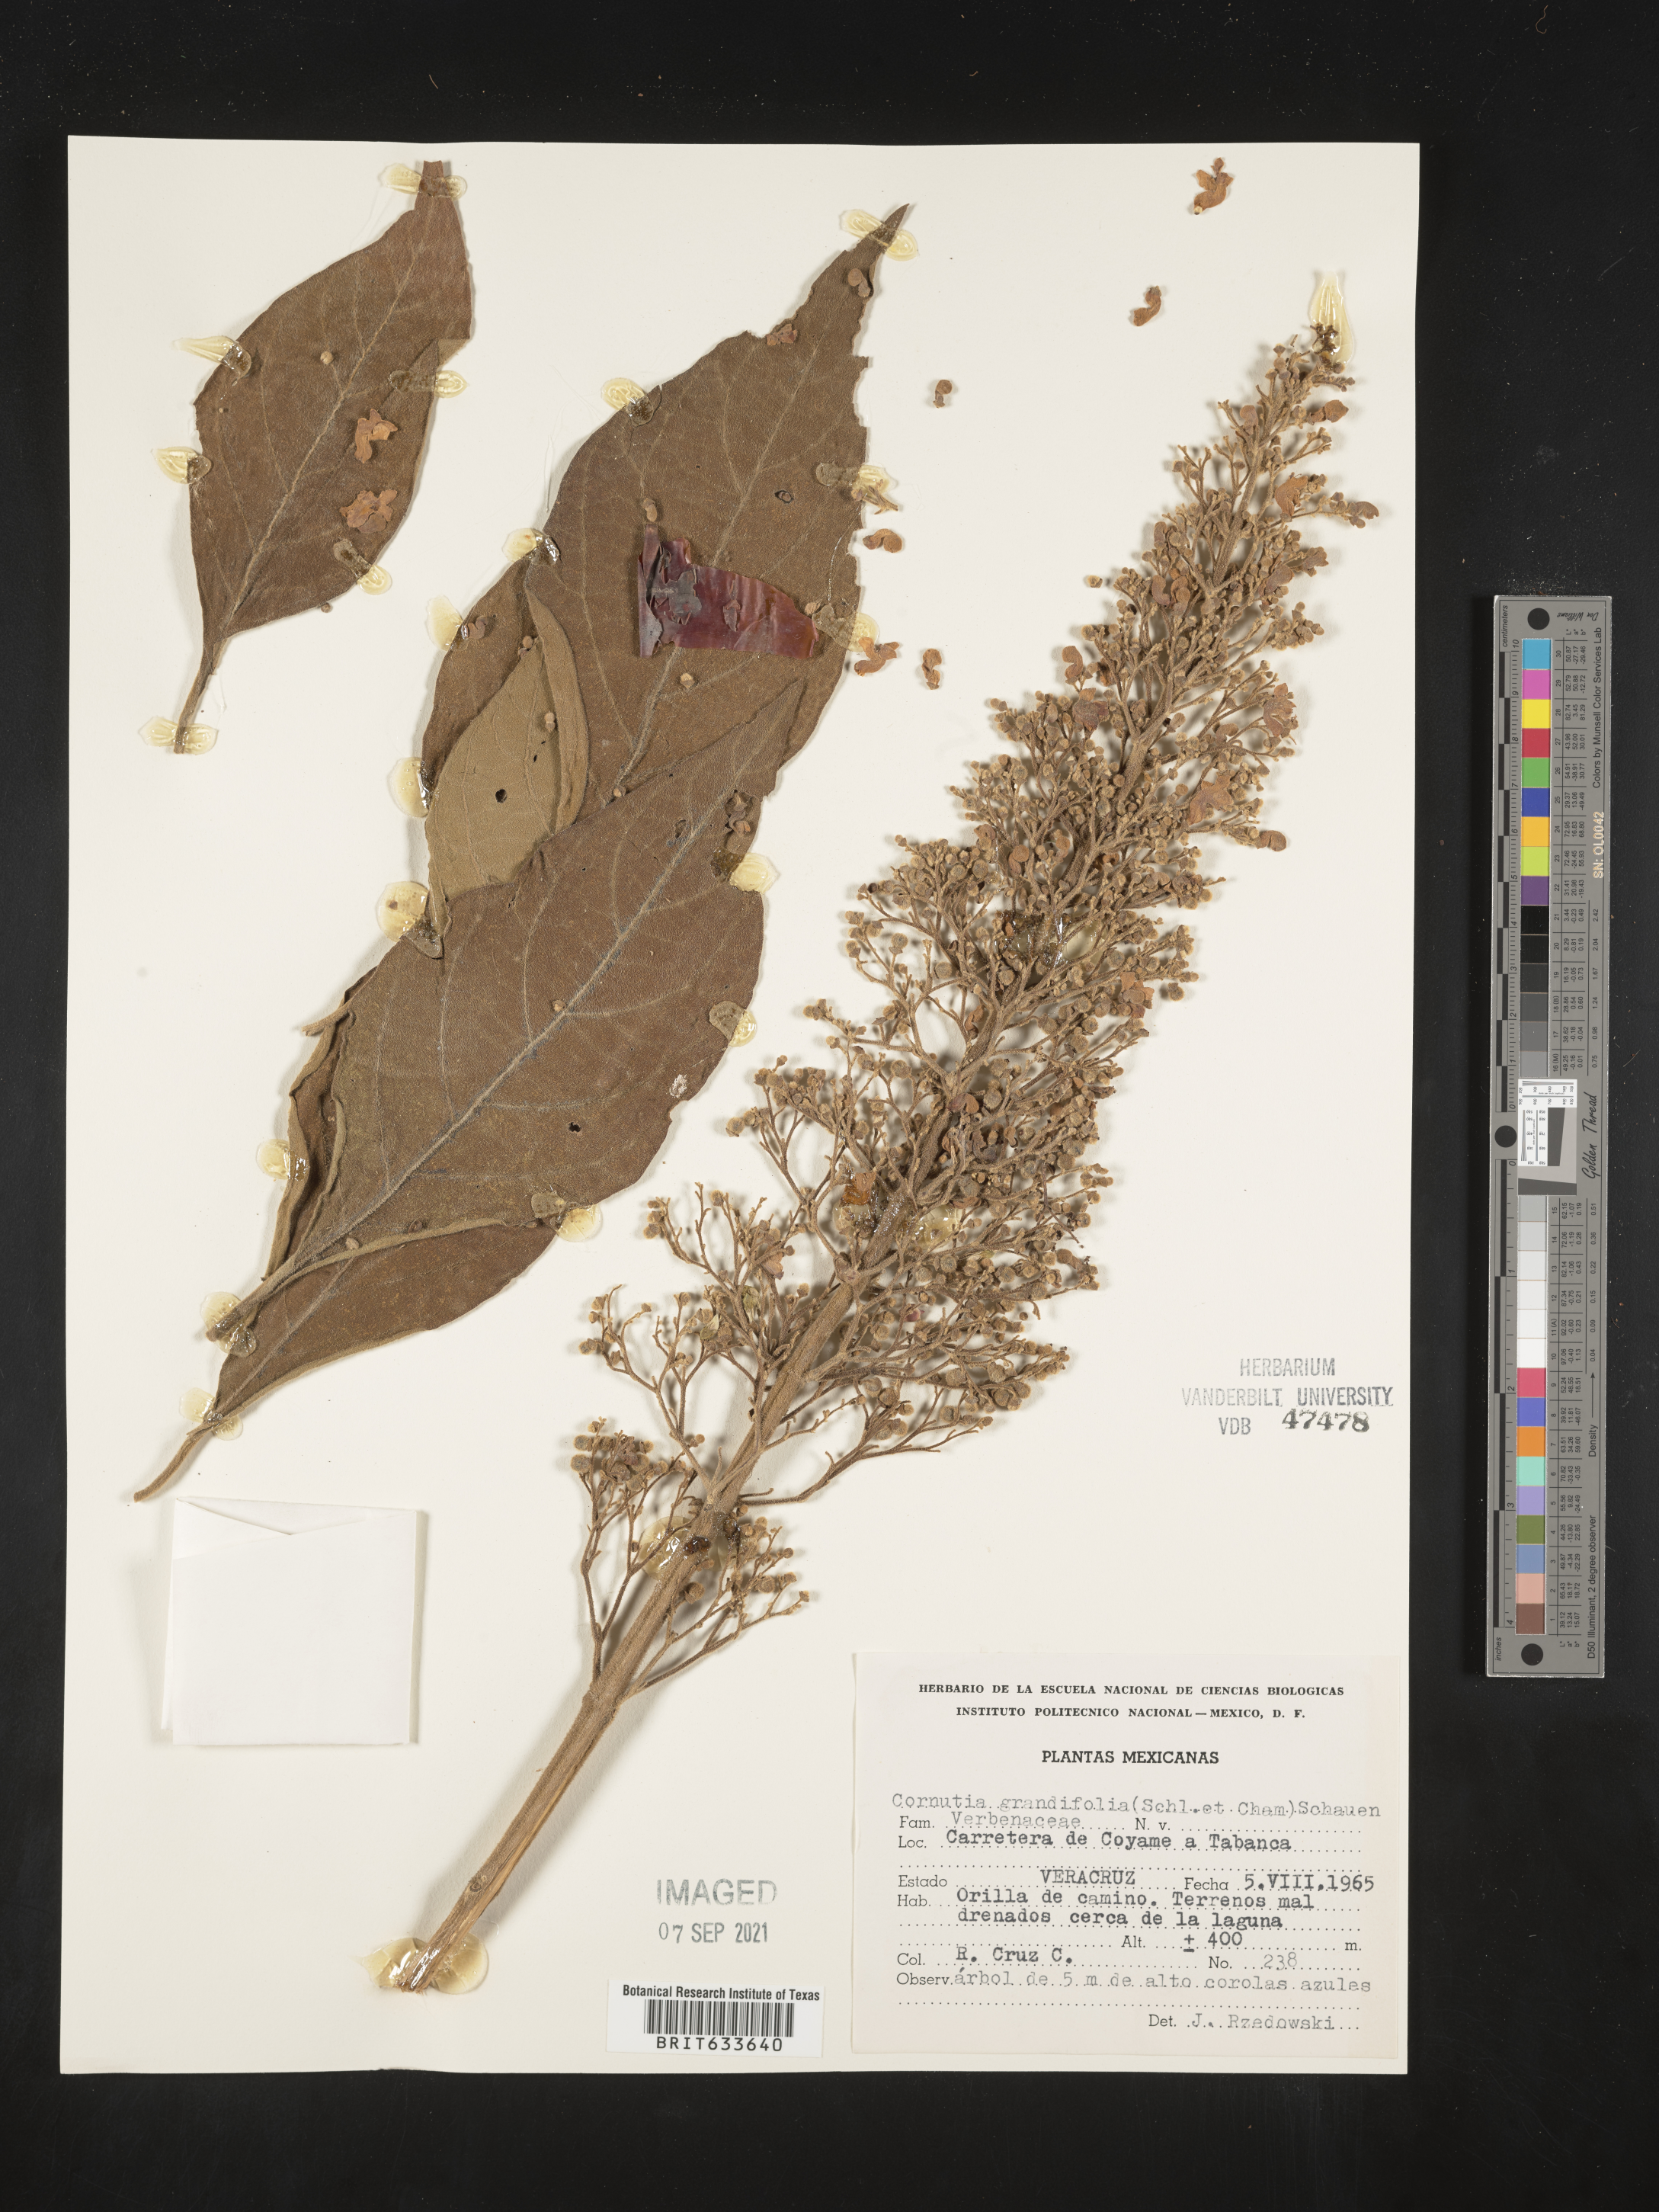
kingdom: Plantae
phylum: Tracheophyta
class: Magnoliopsida
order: Lamiales
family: Lamiaceae
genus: Cornutia
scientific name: Cornutia pyramidata
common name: Azulejo
